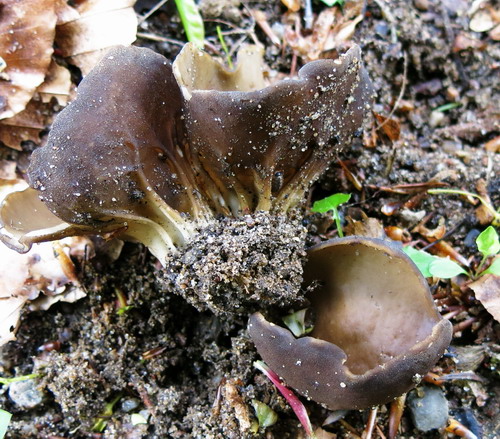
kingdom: Fungi
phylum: Ascomycota
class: Pezizomycetes
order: Pezizales
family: Helvellaceae
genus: Helvella
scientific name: Helvella acetabulum
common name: pokal-foldhat
